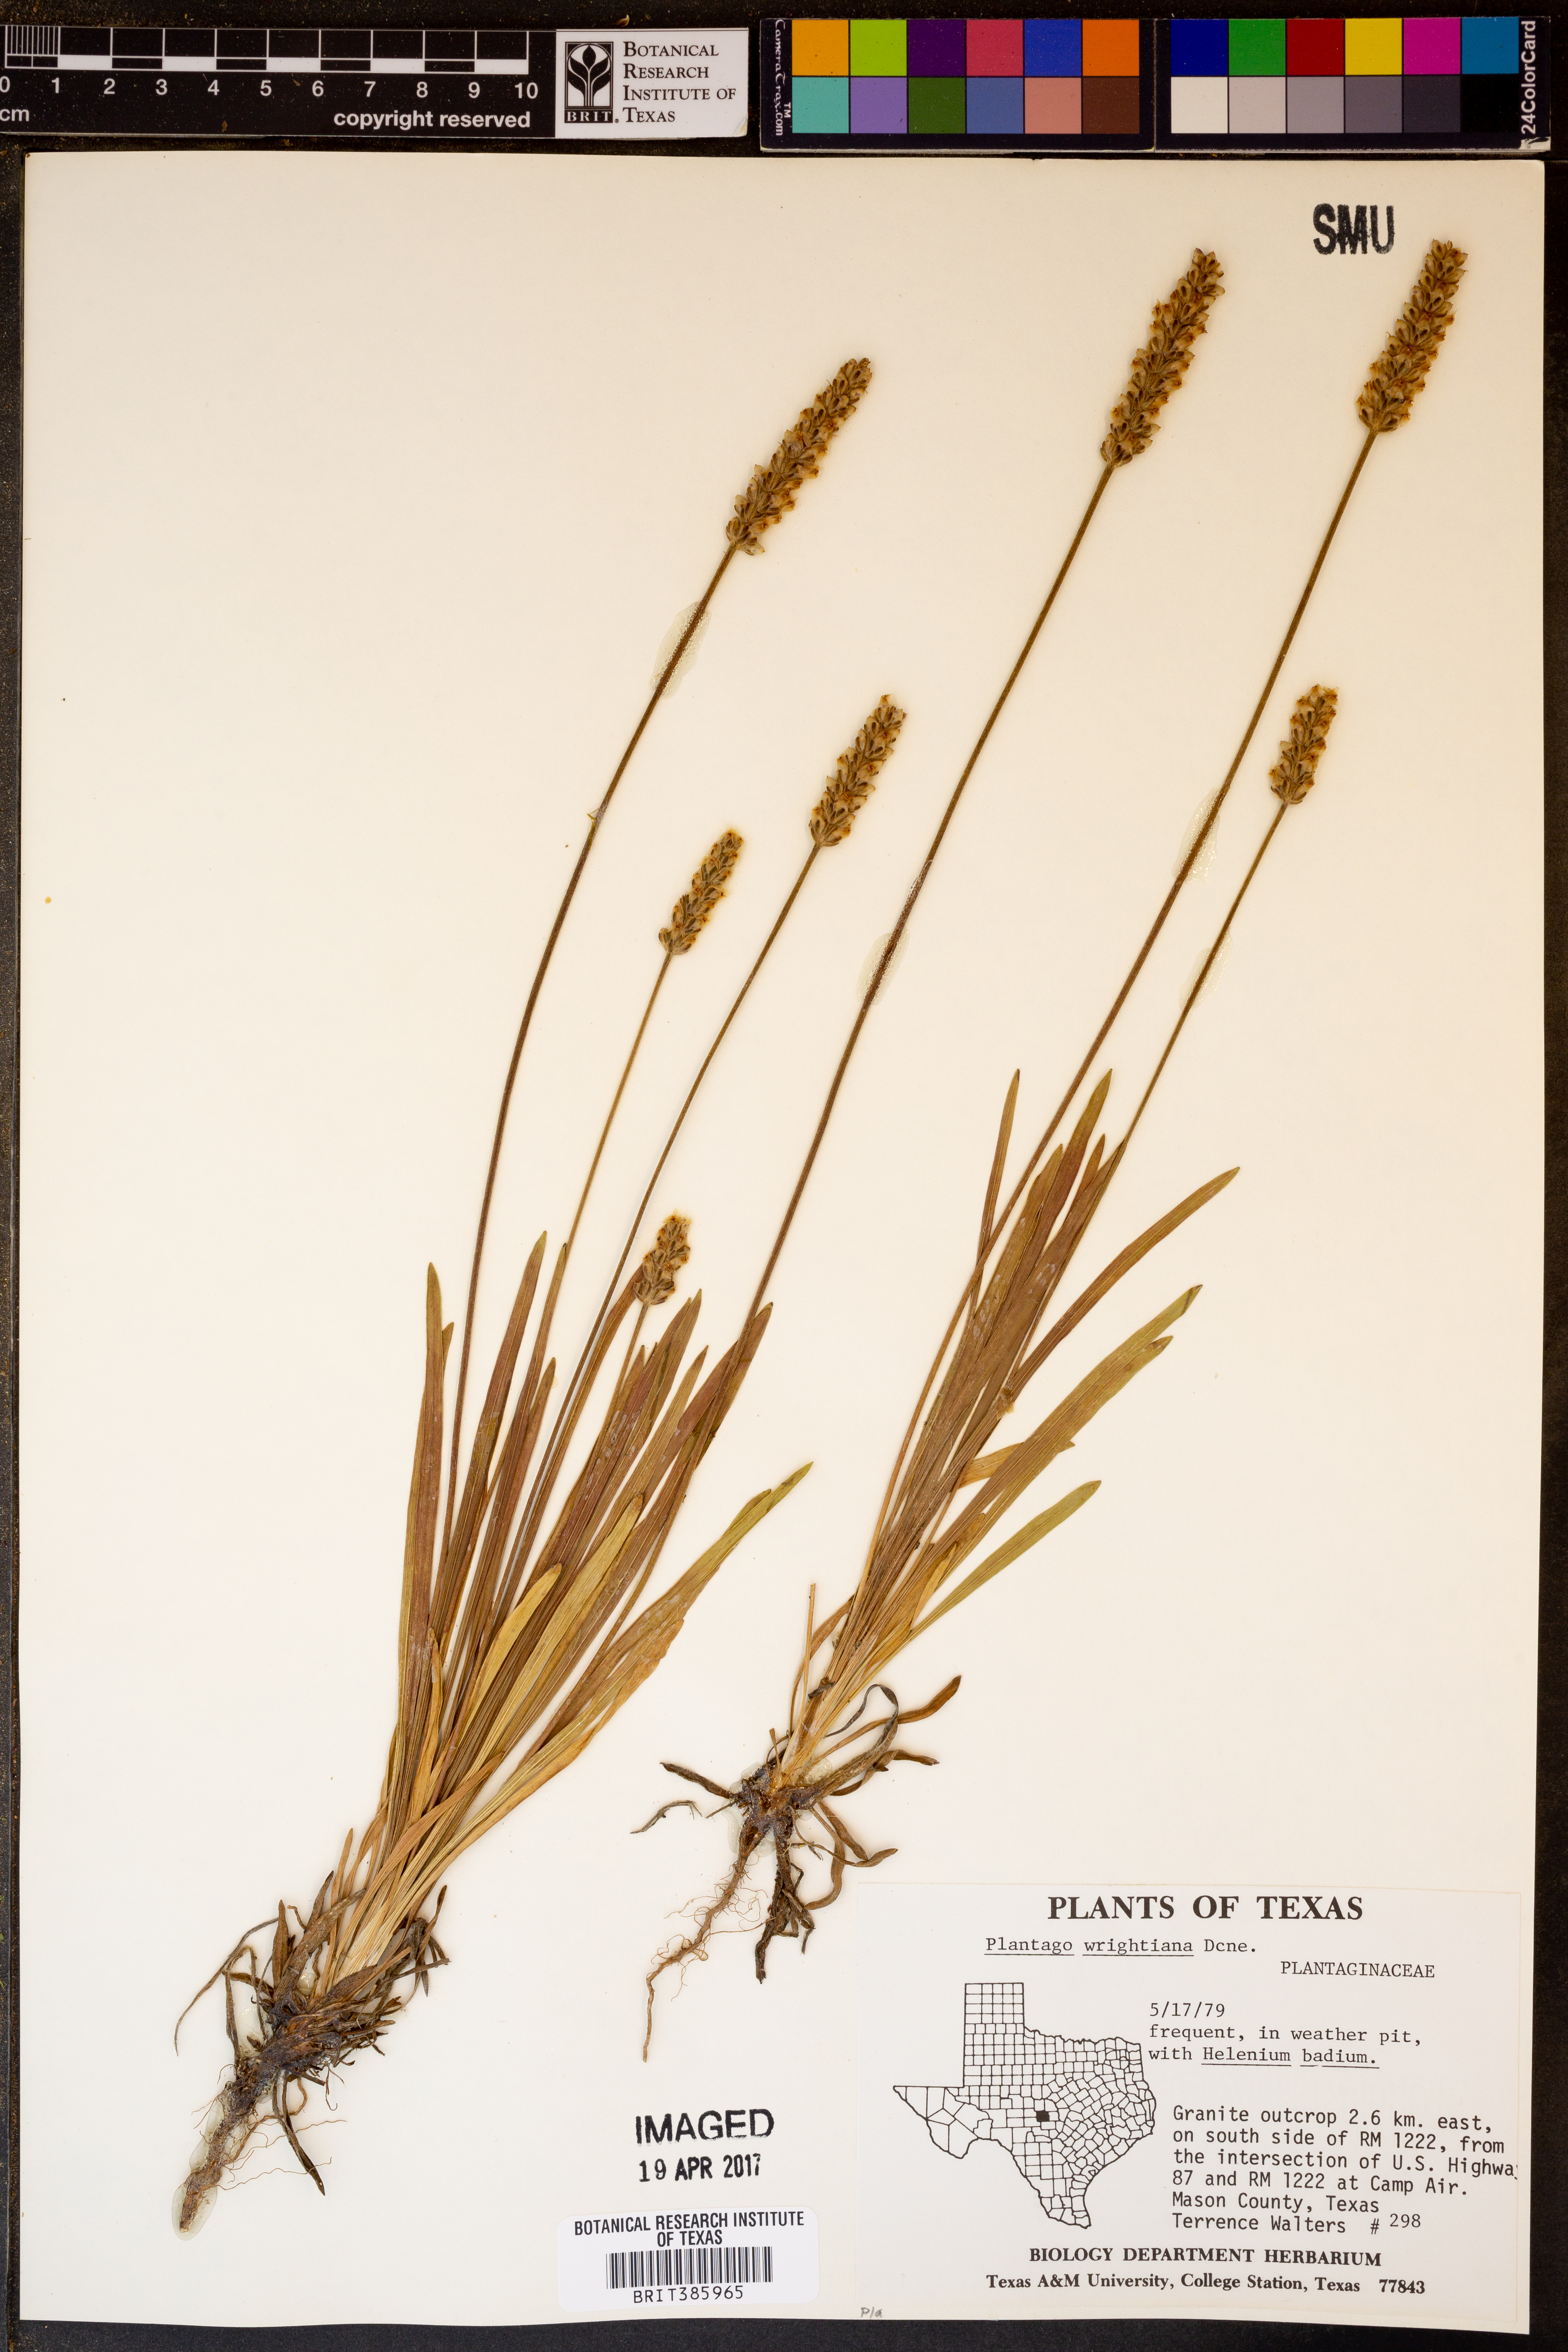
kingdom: Plantae
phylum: Tracheophyta
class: Magnoliopsida
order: Lamiales
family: Plantaginaceae
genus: Plantago
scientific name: Plantago wrightiana
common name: Wright's plantain
